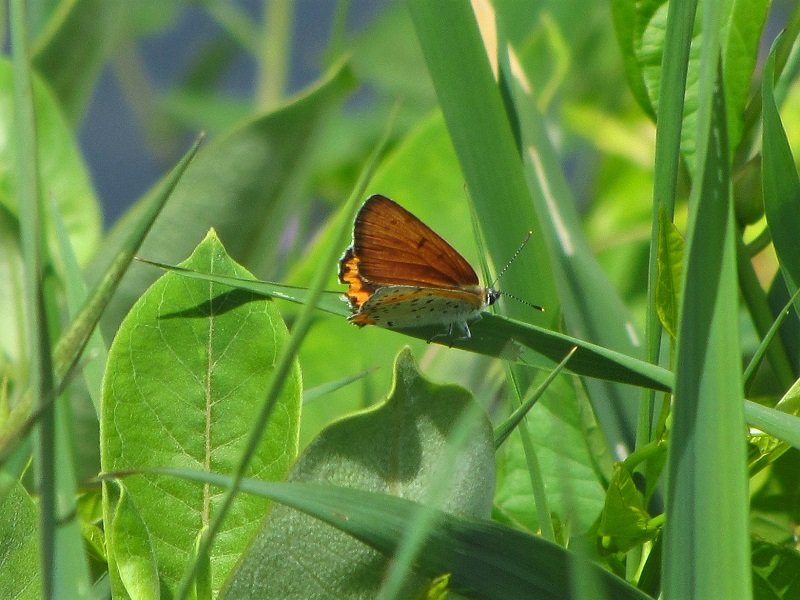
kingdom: Animalia
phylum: Arthropoda
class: Insecta
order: Lepidoptera
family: Sesiidae
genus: Sesia
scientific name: Sesia Lycaena hyllus
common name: Bronze Copper
